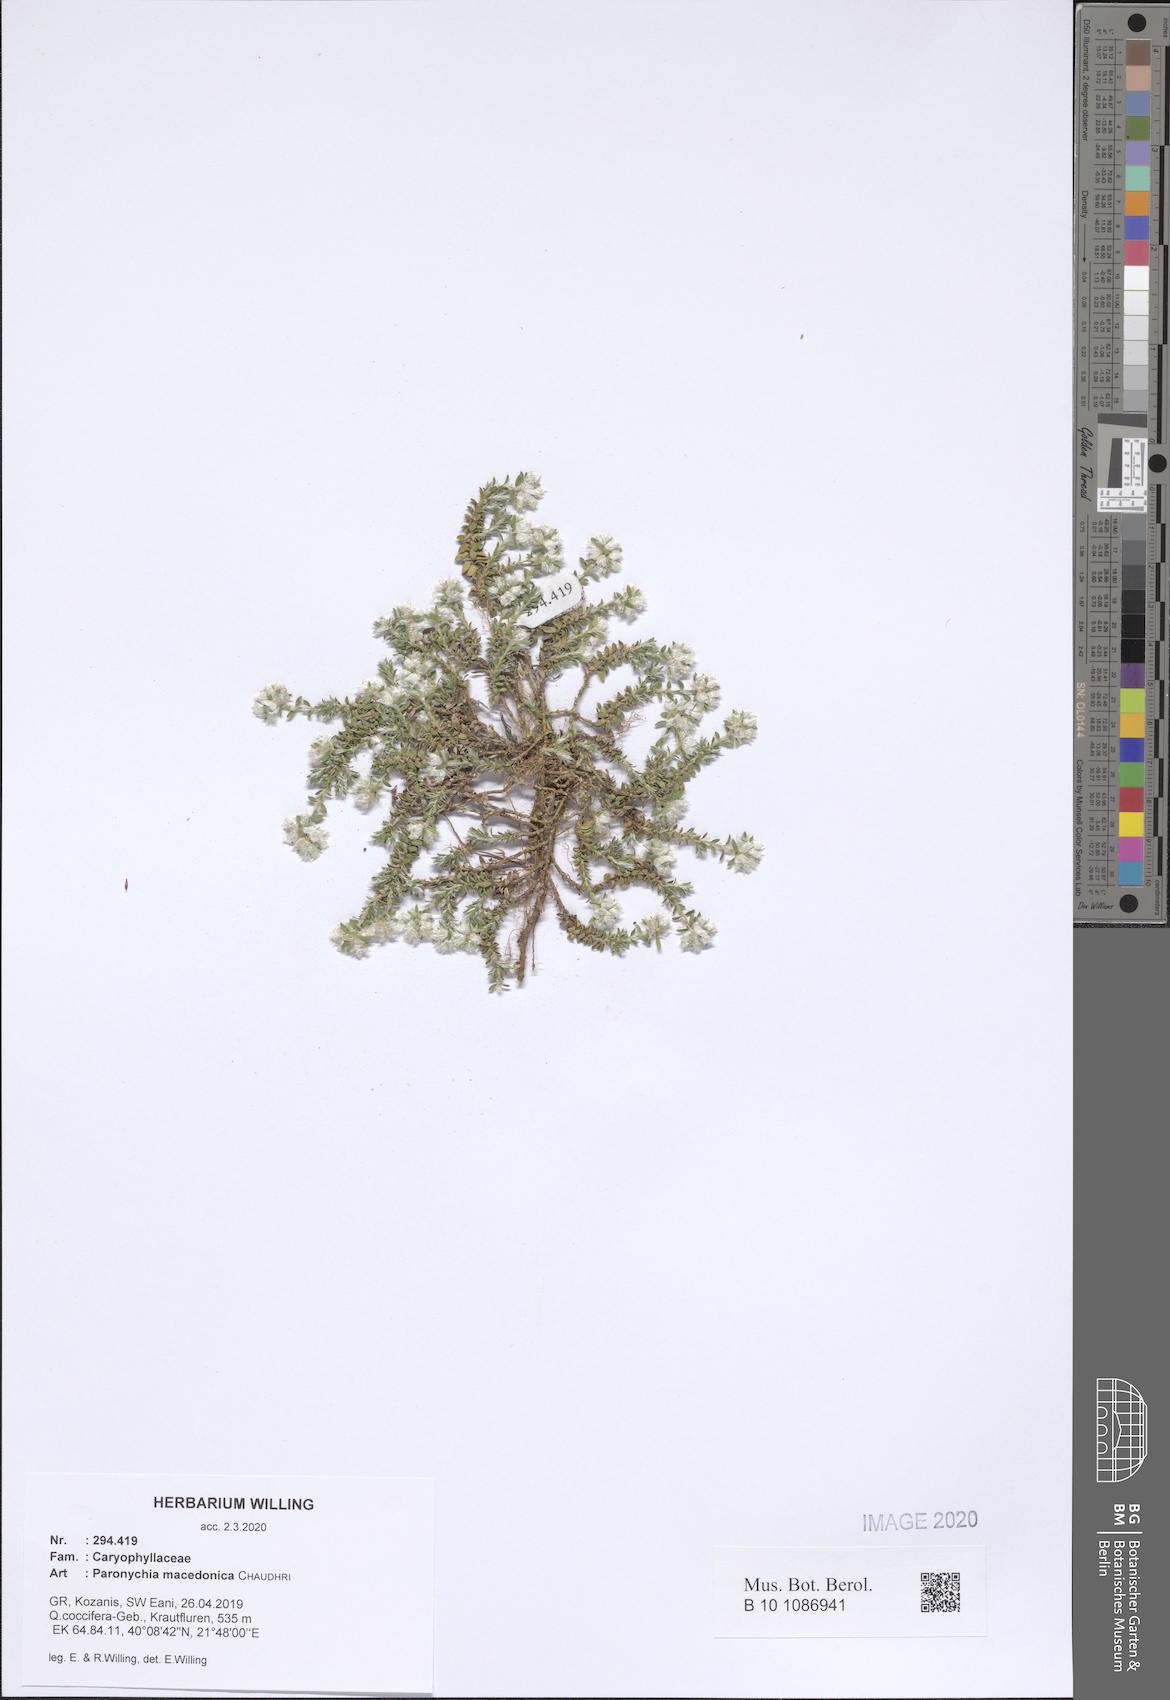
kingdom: Plantae
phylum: Tracheophyta
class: Magnoliopsida
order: Caryophyllales
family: Caryophyllaceae
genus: Paronychia
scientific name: Paronychia macedonica
